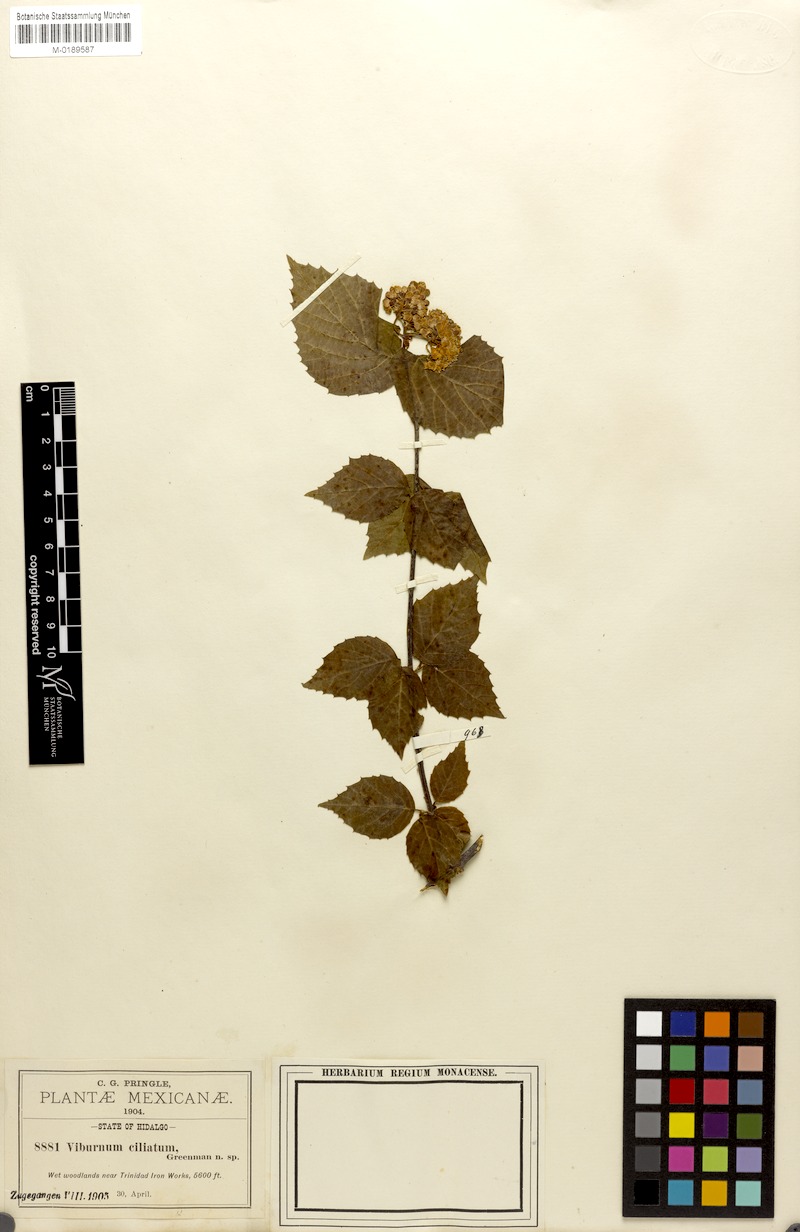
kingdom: Plantae
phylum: Tracheophyta
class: Magnoliopsida
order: Dipsacales
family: Viburnaceae
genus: Viburnum
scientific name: Viburnum ciliatum
